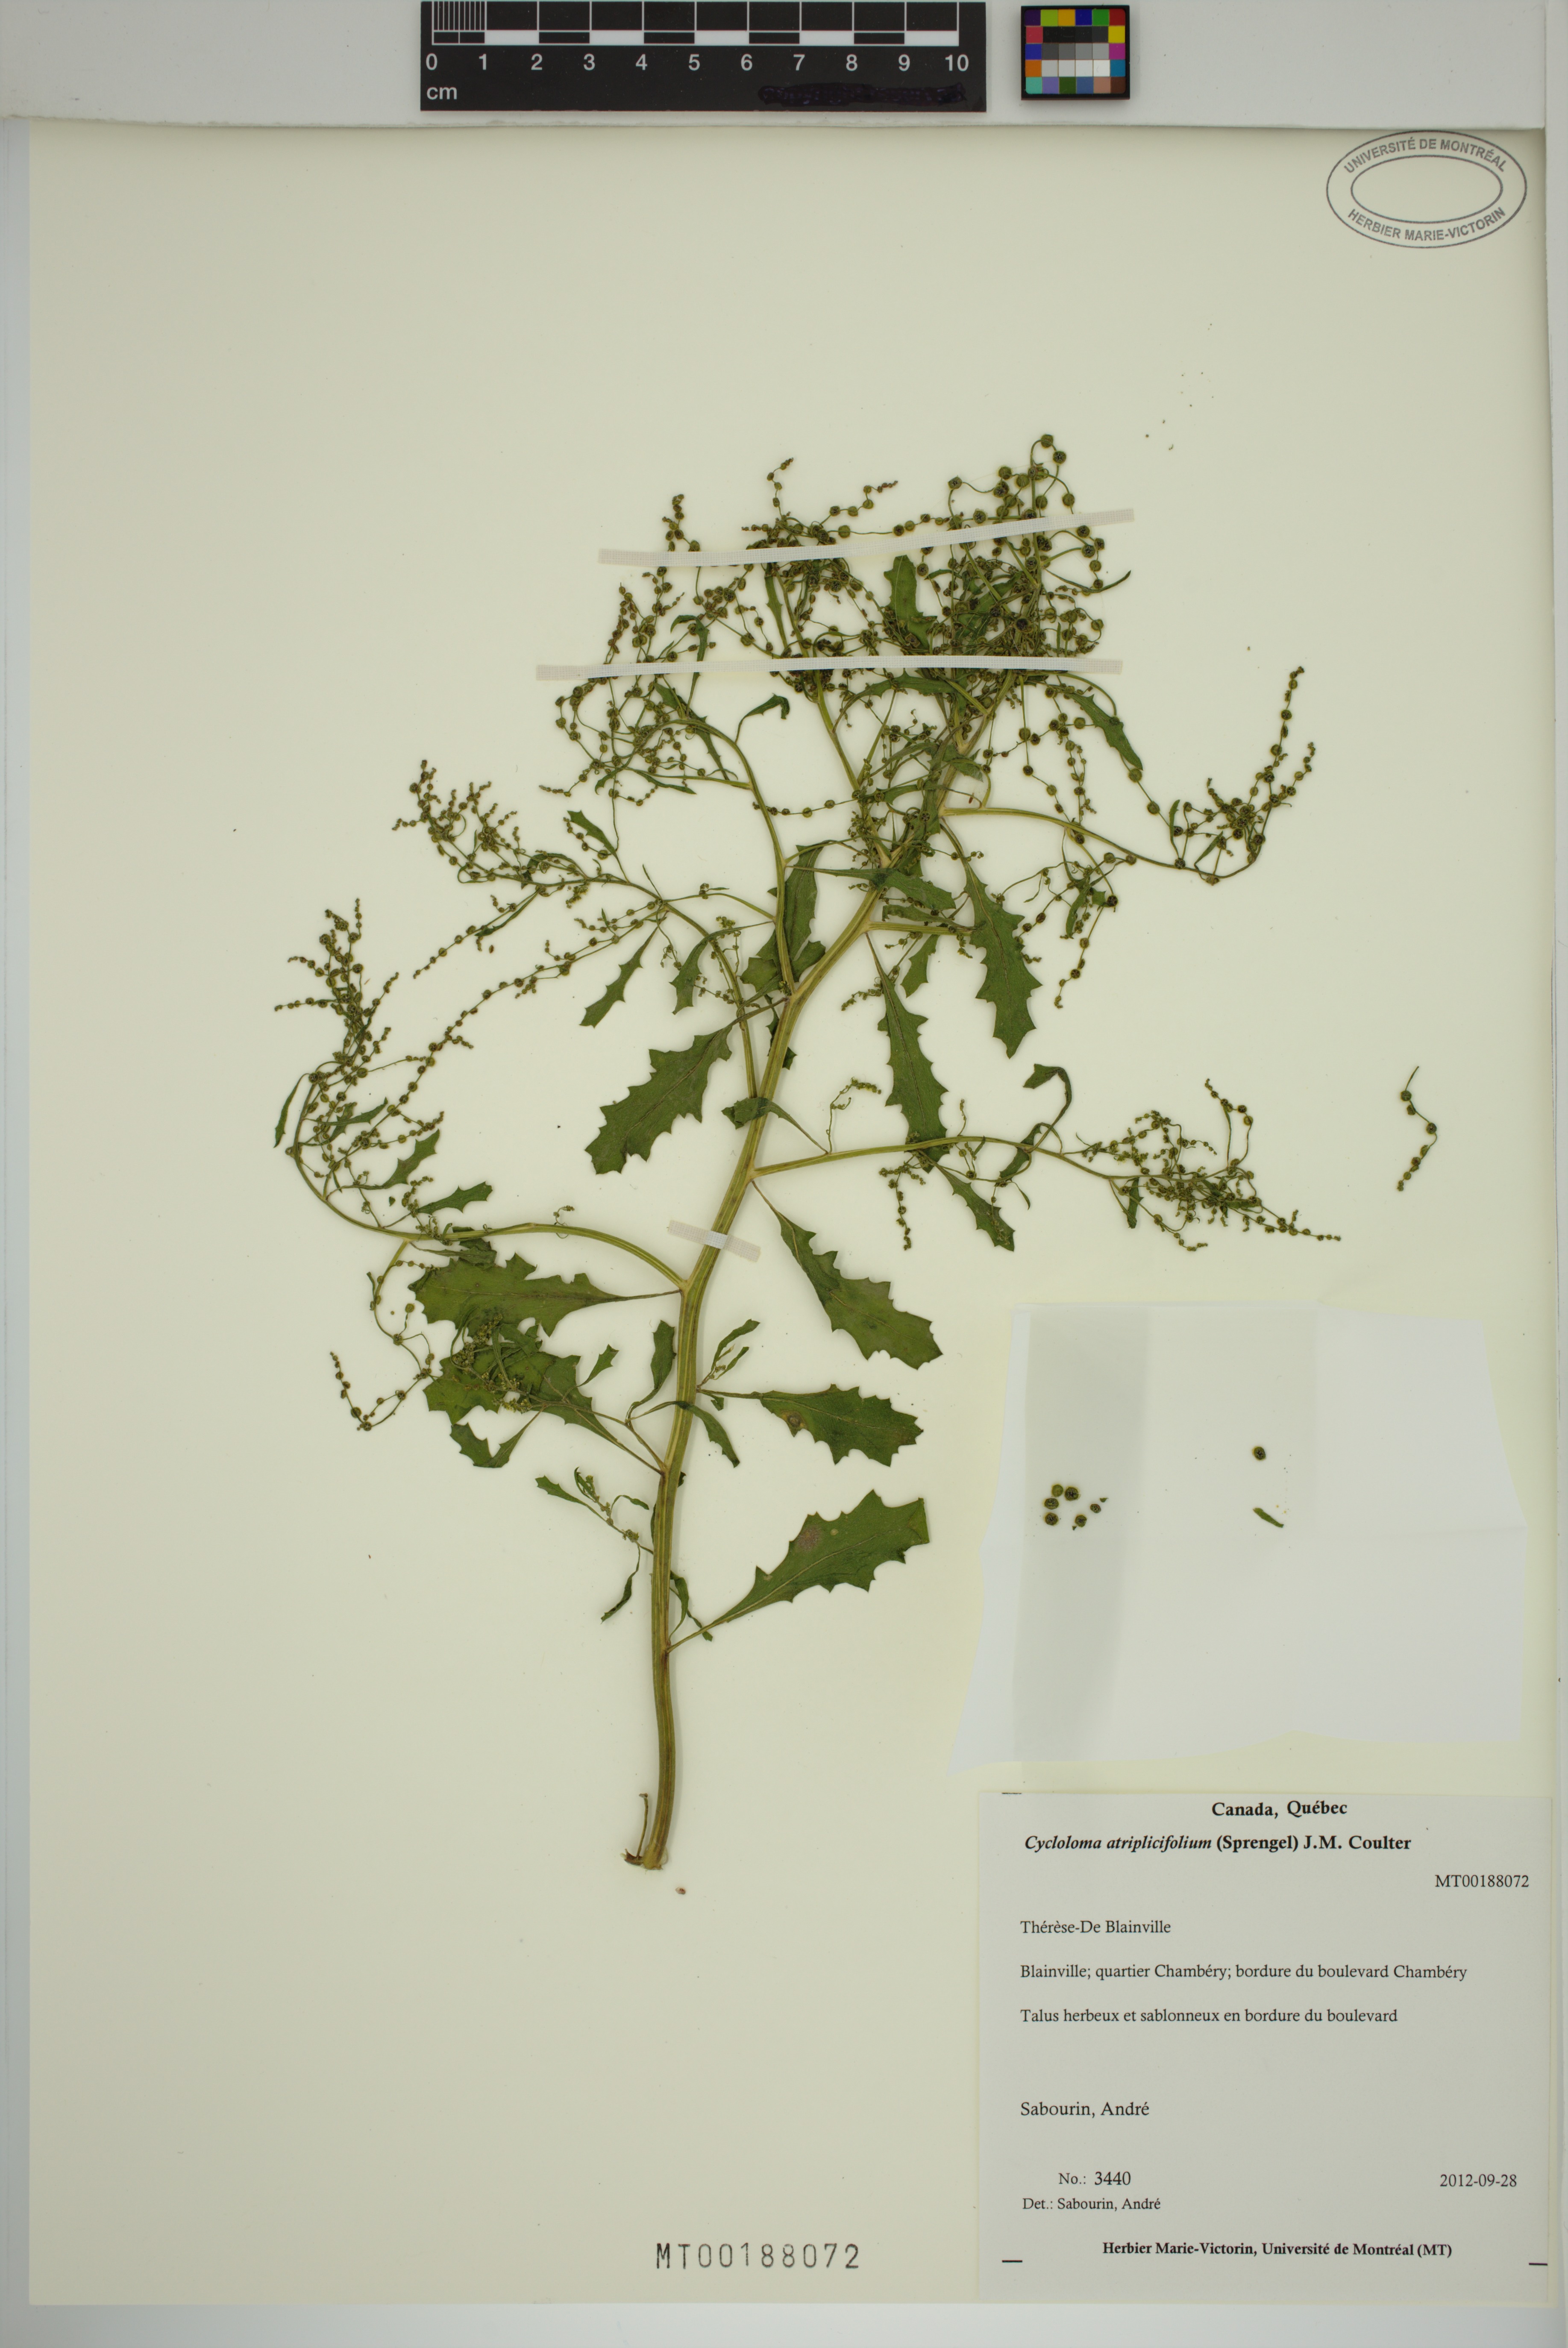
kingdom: Plantae
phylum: Tracheophyta
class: Magnoliopsida
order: Caryophyllales
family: Amaranthaceae
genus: Dysphania
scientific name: Dysphania atriplicifolia
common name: Plains tumbleweed
